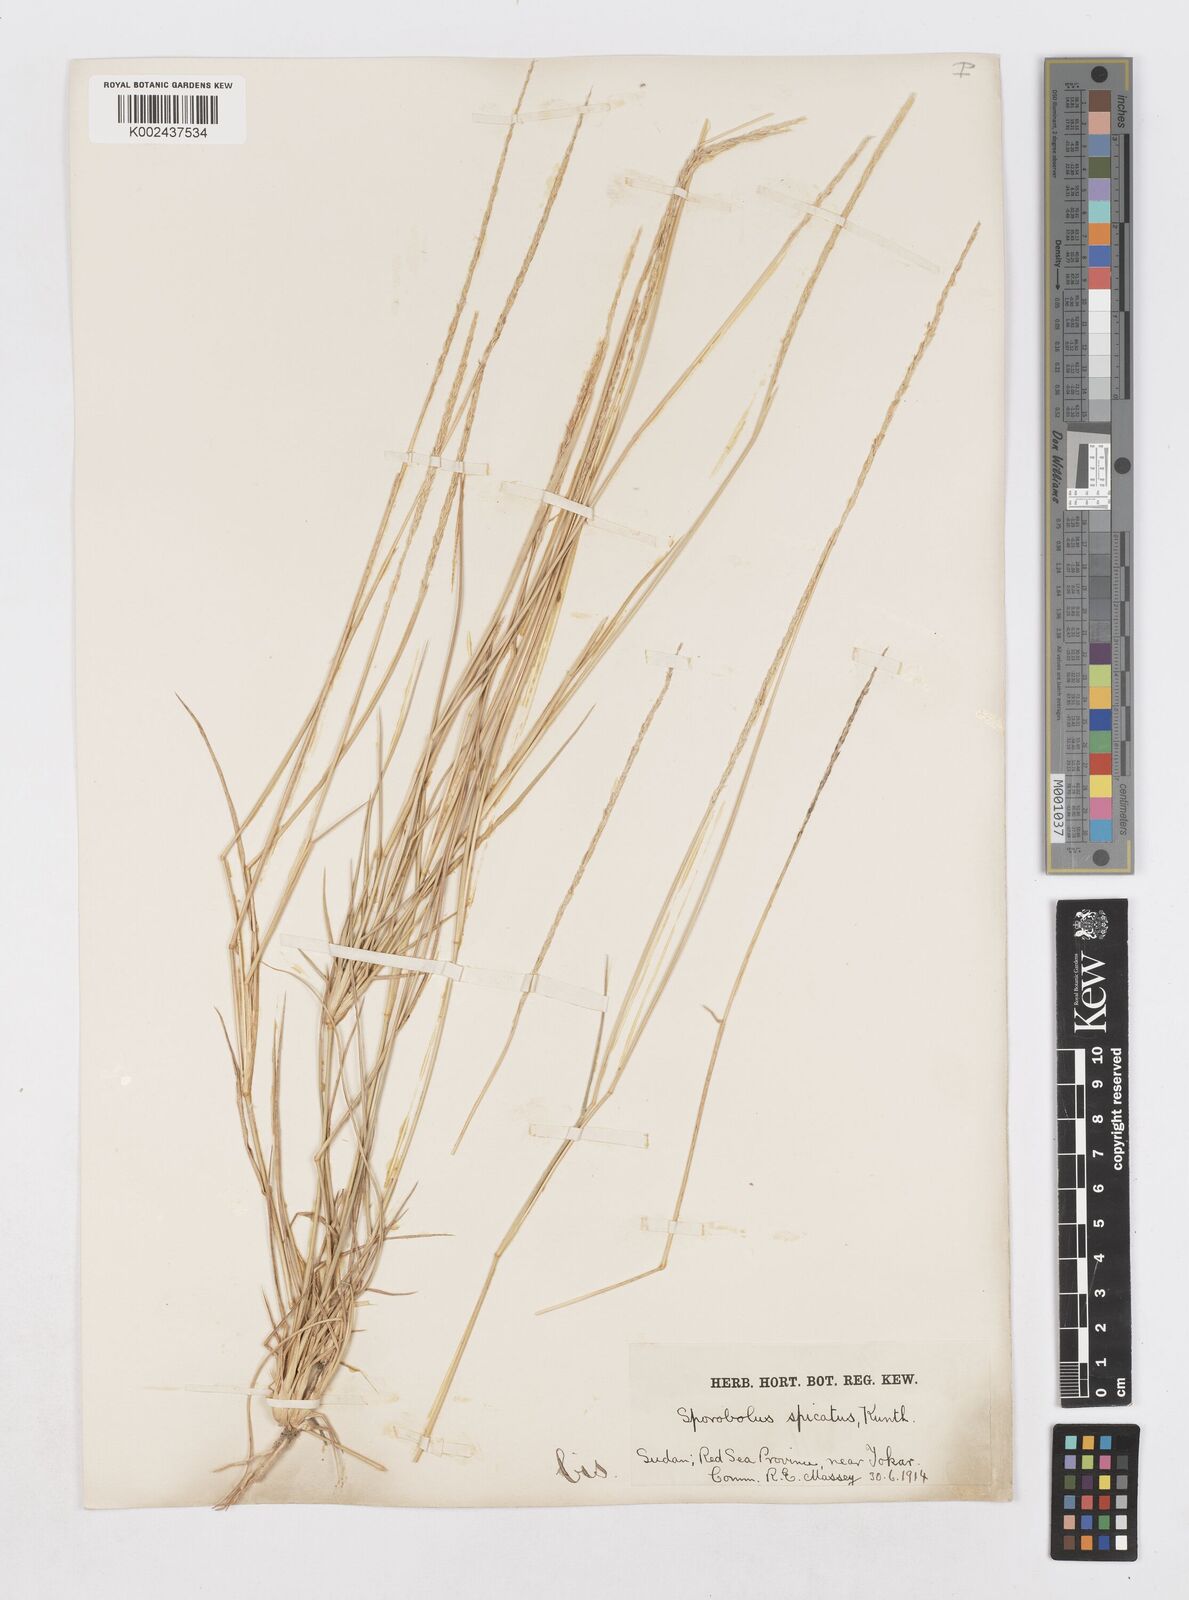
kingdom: Plantae
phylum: Tracheophyta
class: Liliopsida
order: Poales
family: Poaceae
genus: Sporobolus
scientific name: Sporobolus spicatus
